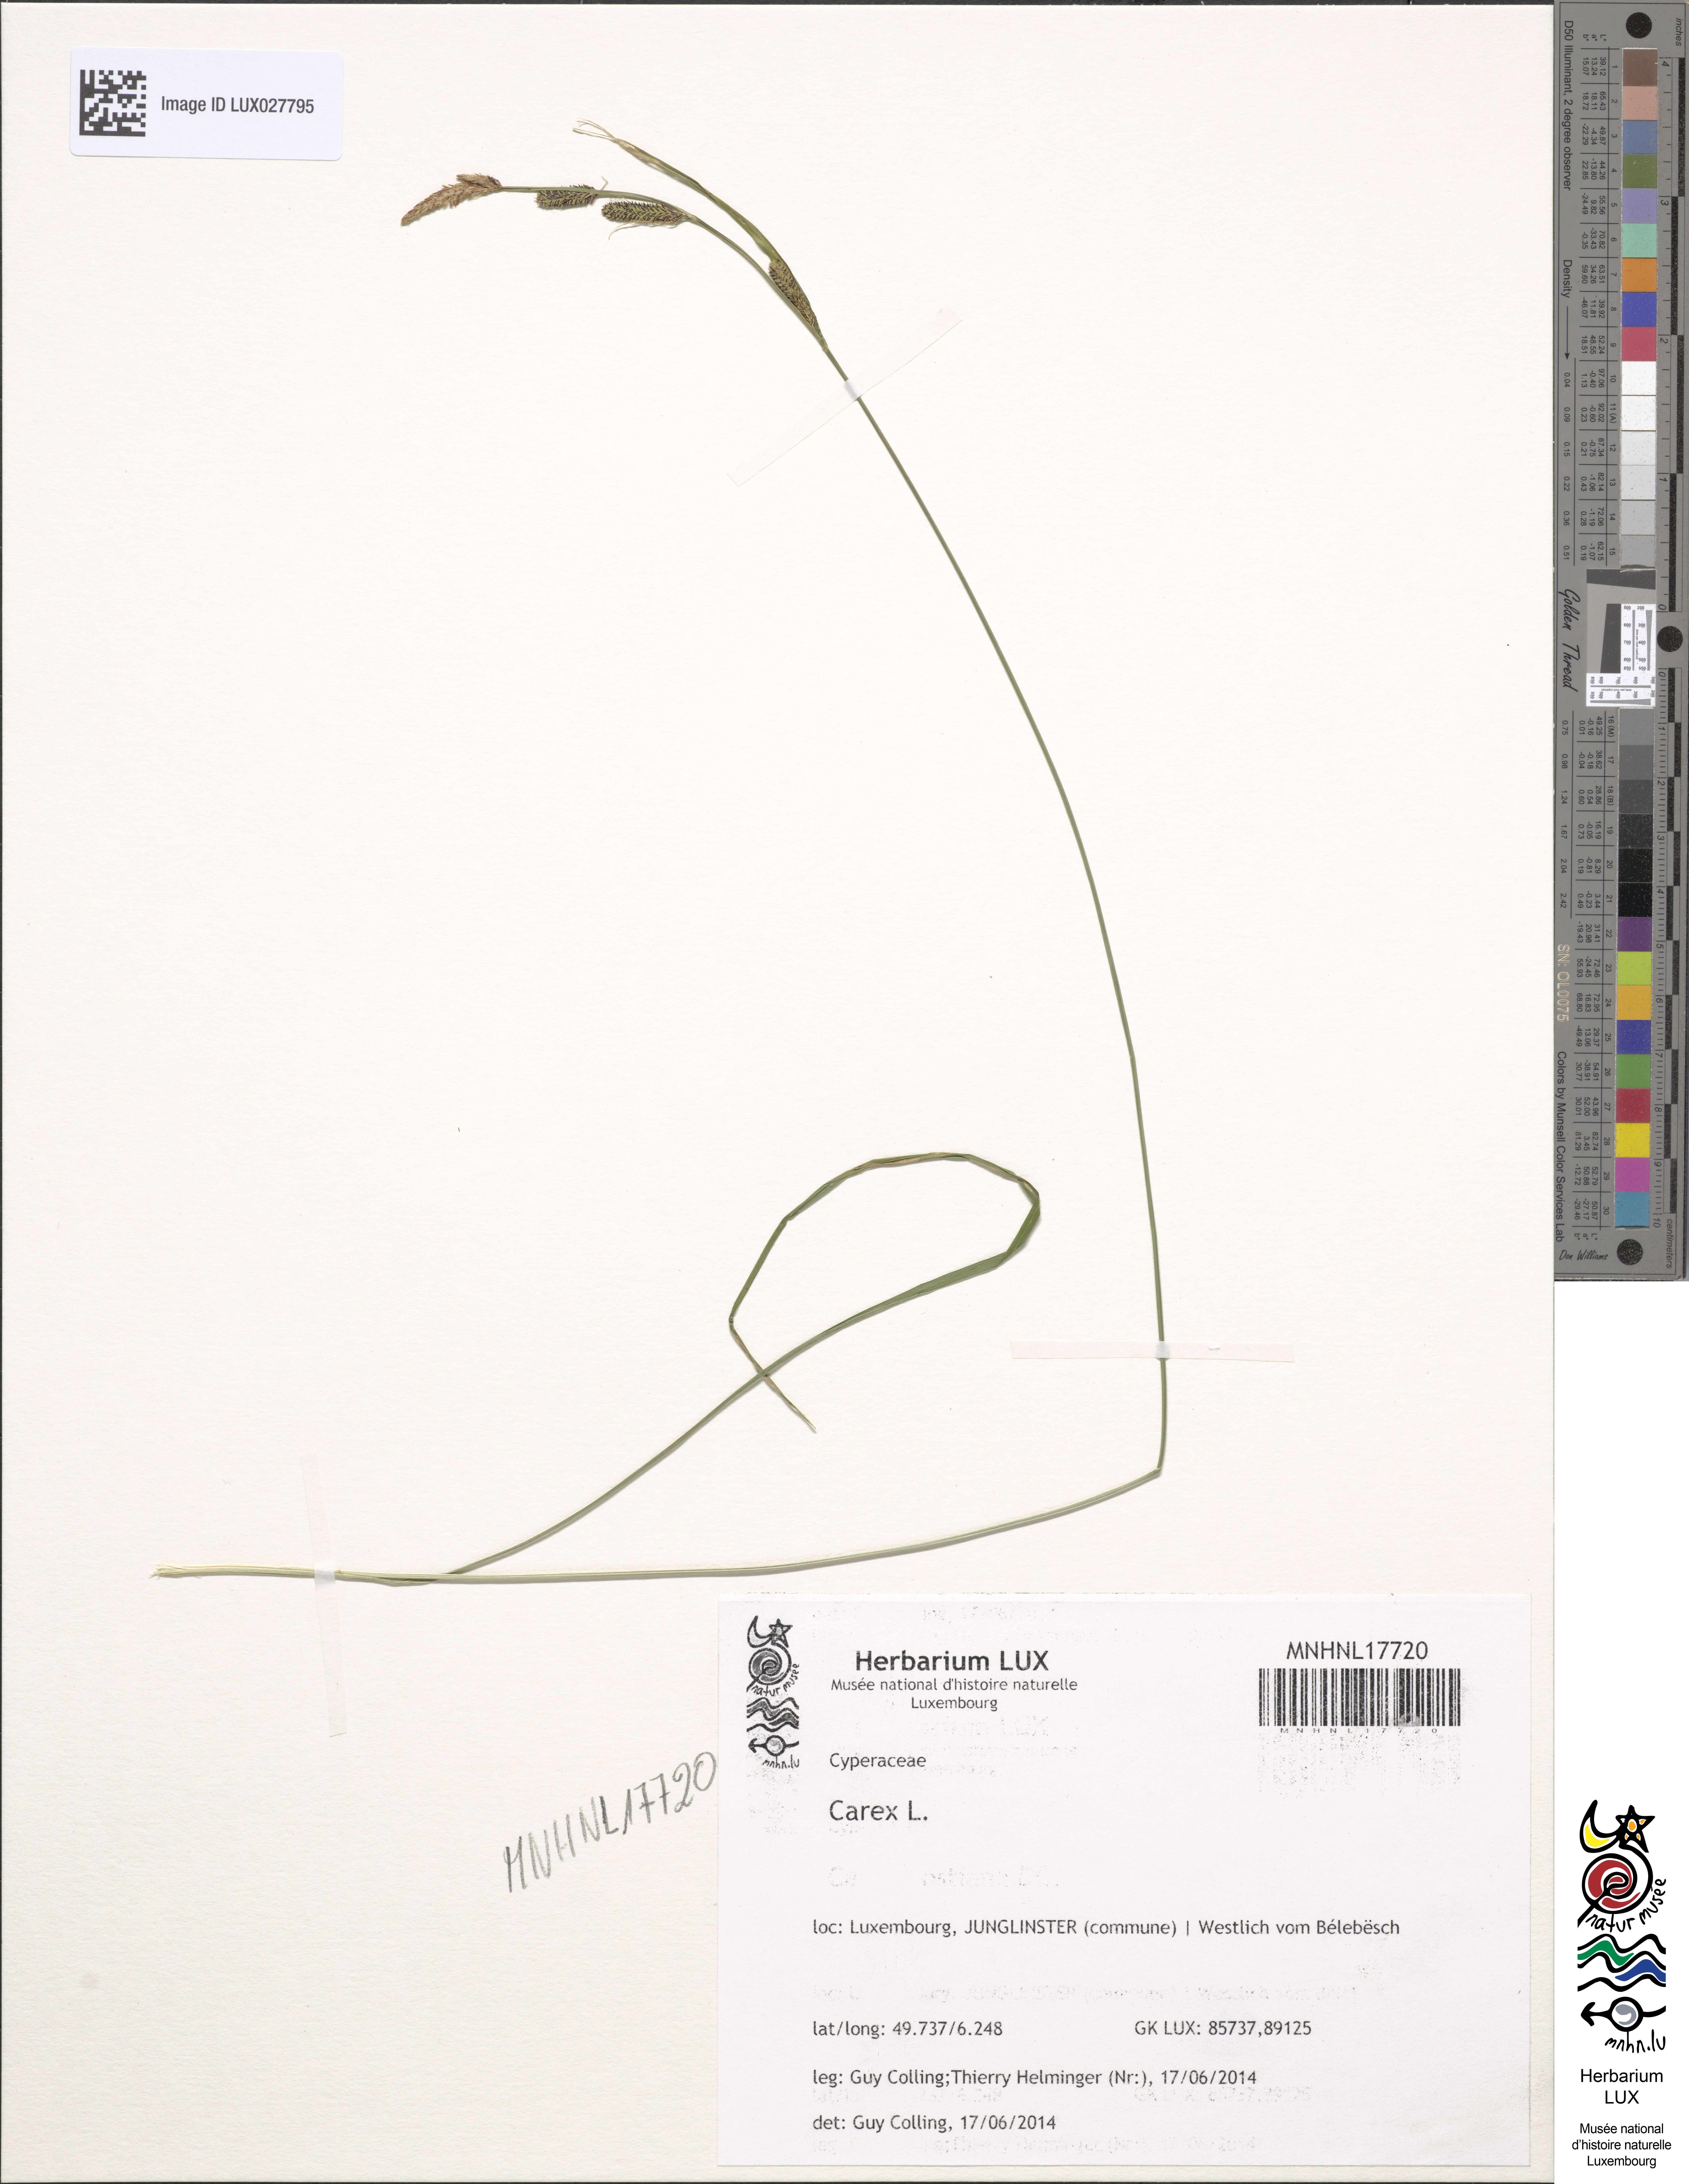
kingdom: Plantae
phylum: Tracheophyta
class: Liliopsida
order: Poales
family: Cyperaceae
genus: Carex
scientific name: Carex
